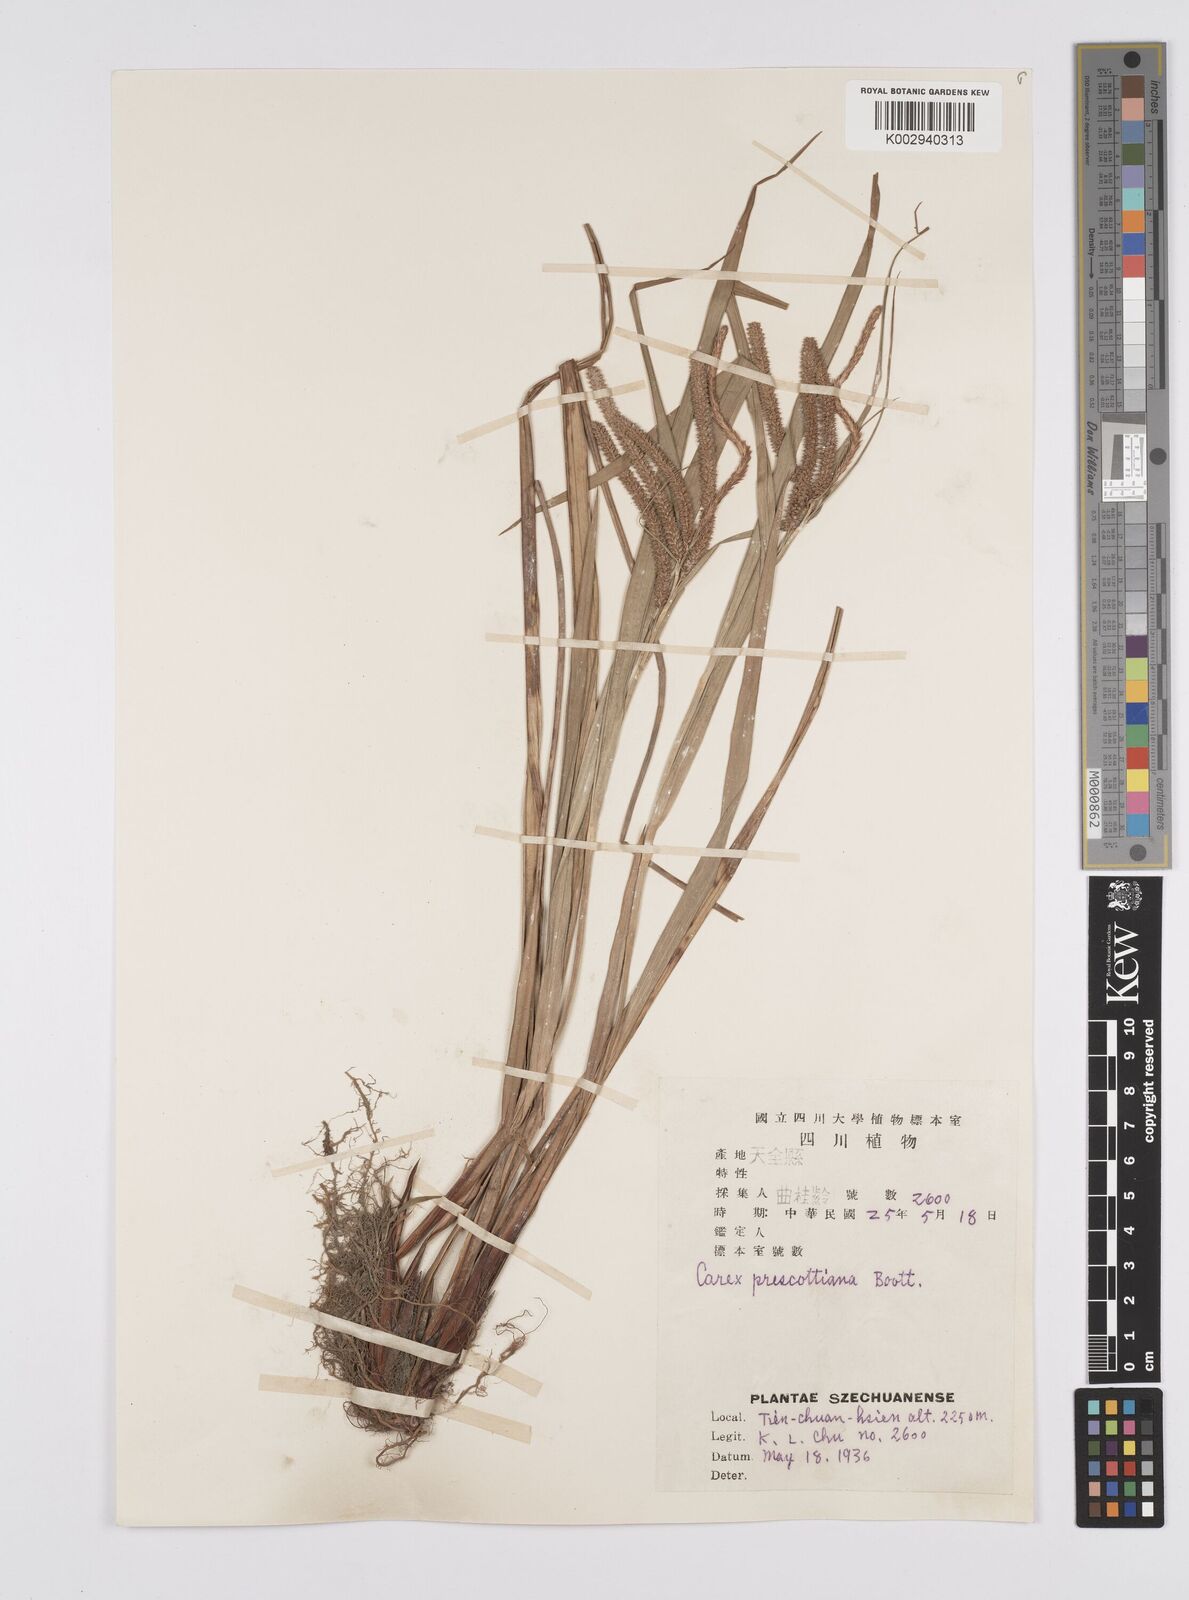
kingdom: Plantae
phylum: Tracheophyta
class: Liliopsida
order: Poales
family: Cyperaceae
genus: Carex
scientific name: Carex prescottiana
